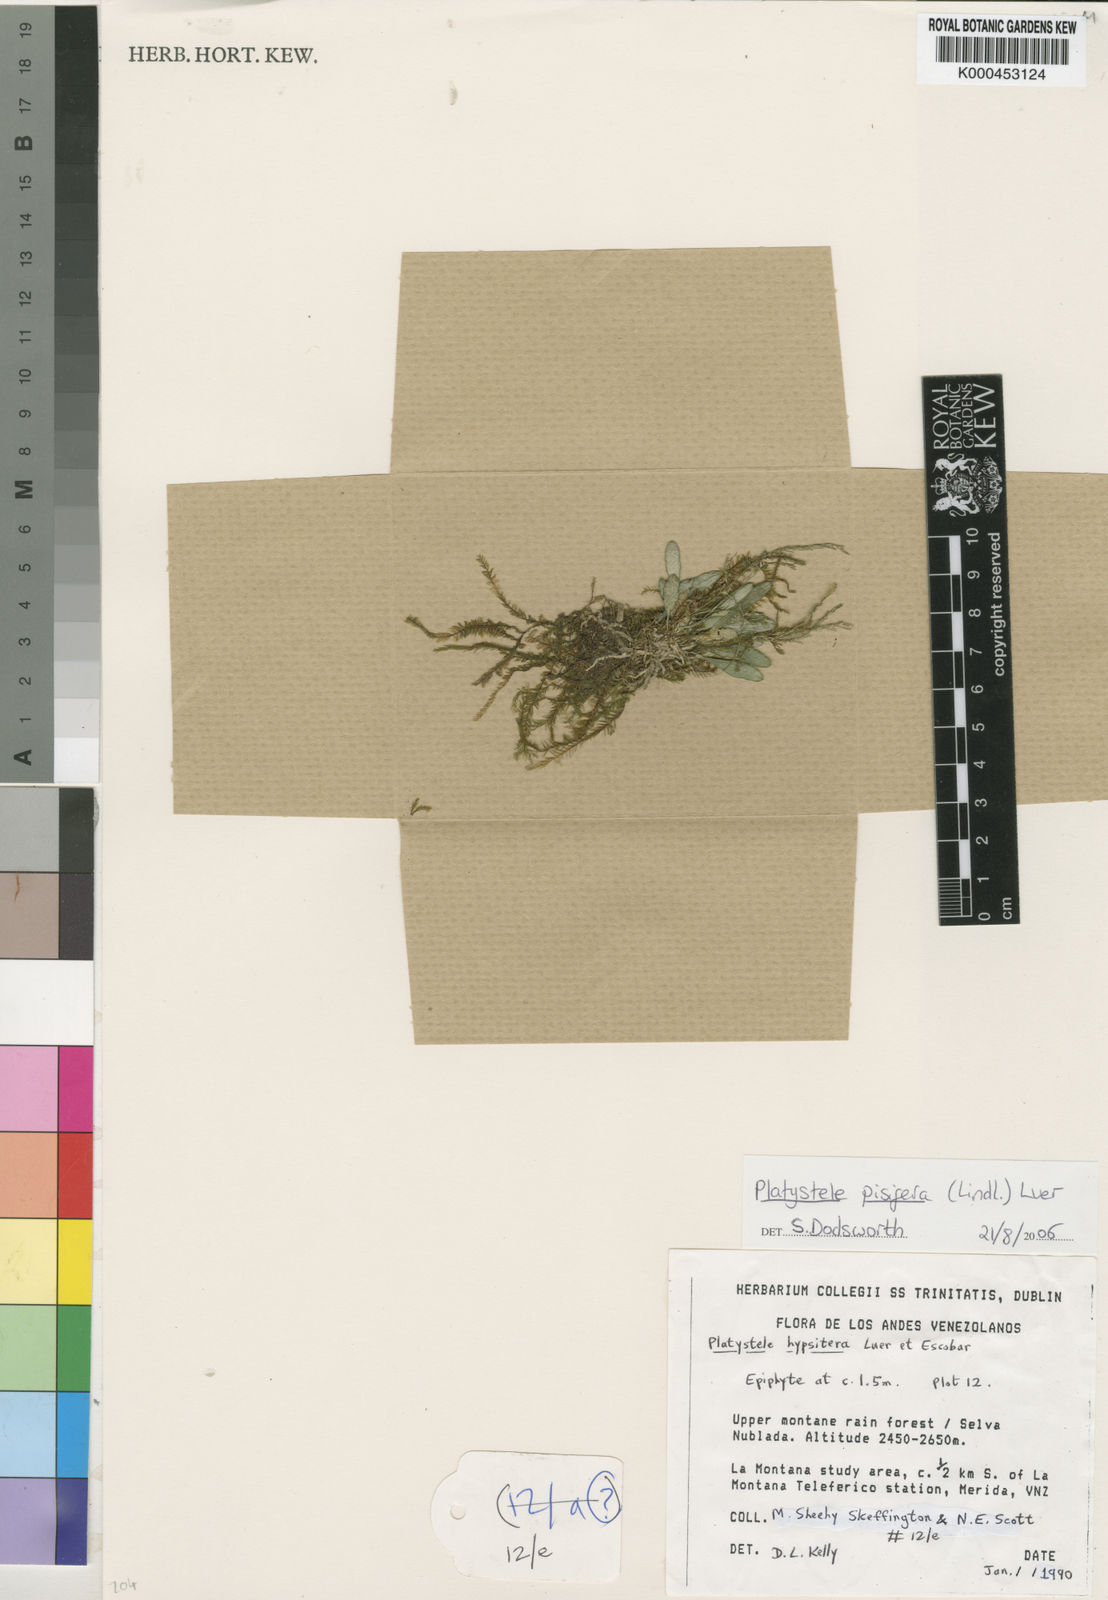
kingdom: Plantae
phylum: Tracheophyta
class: Liliopsida
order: Asparagales
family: Orchidaceae
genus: Platystele
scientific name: Platystele pisifera
